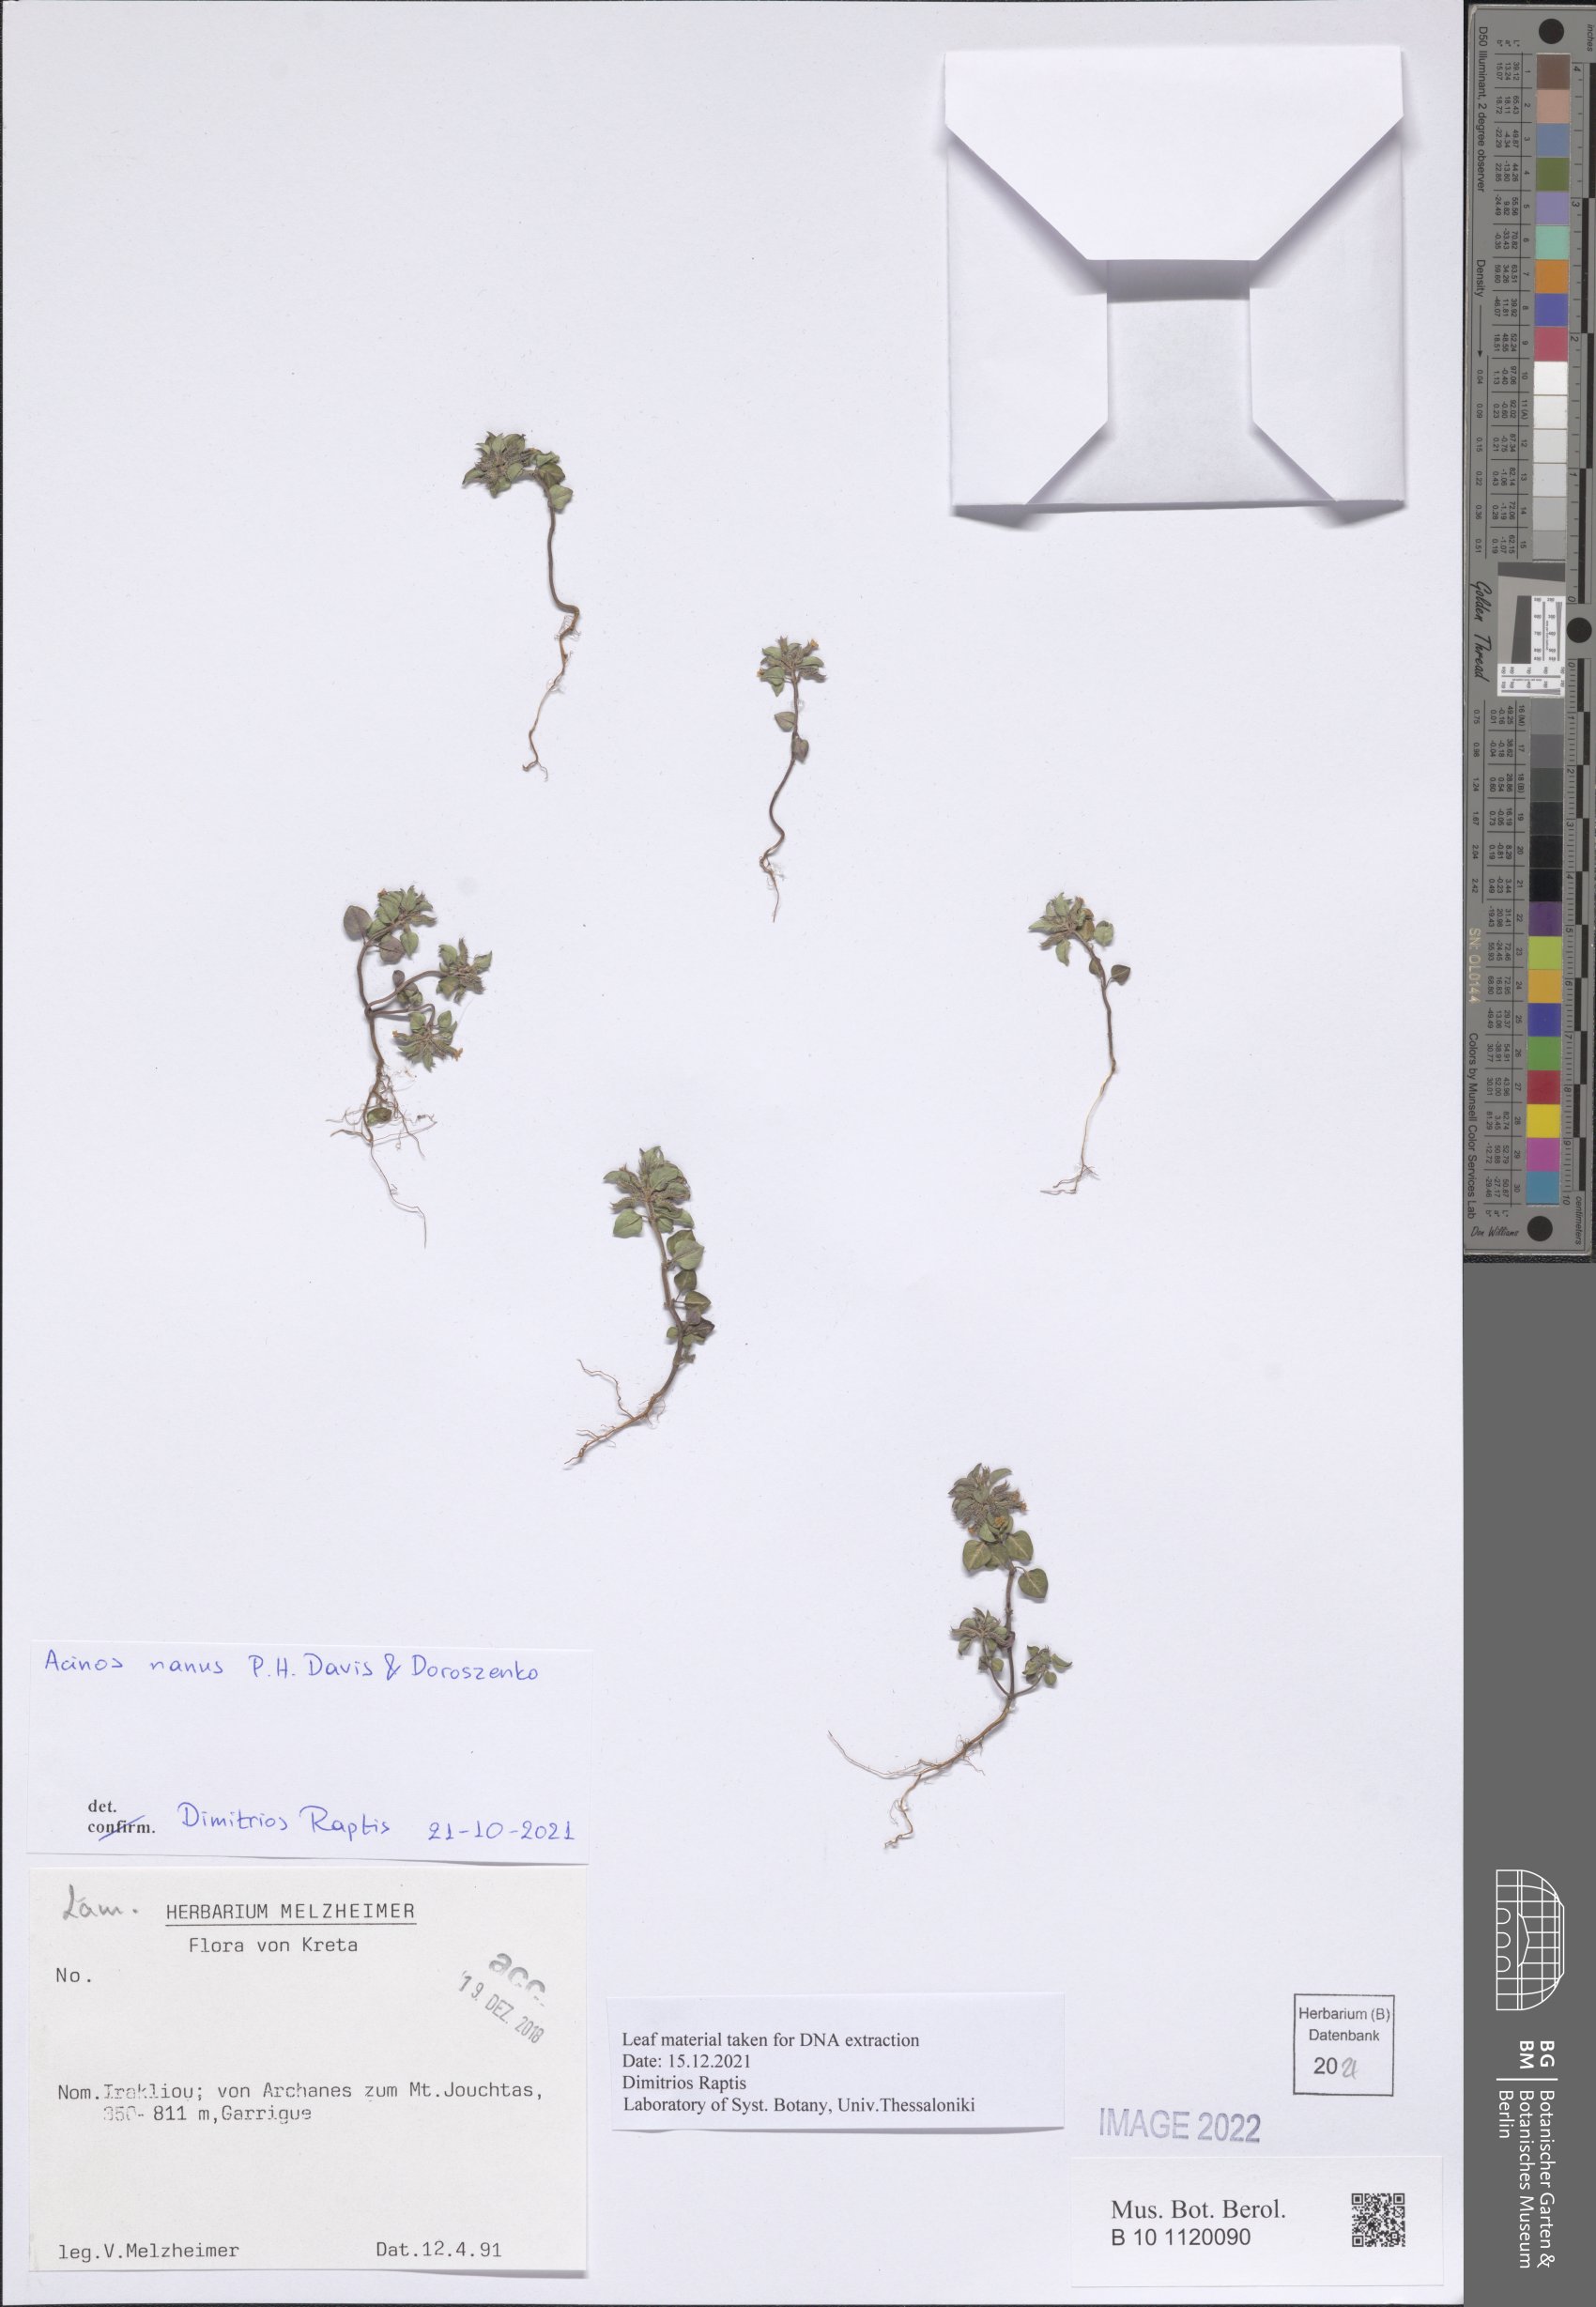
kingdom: Plantae
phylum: Tracheophyta
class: Magnoliopsida
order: Lamiales
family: Lamiaceae
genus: Clinopodium
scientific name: Clinopodium nanum
